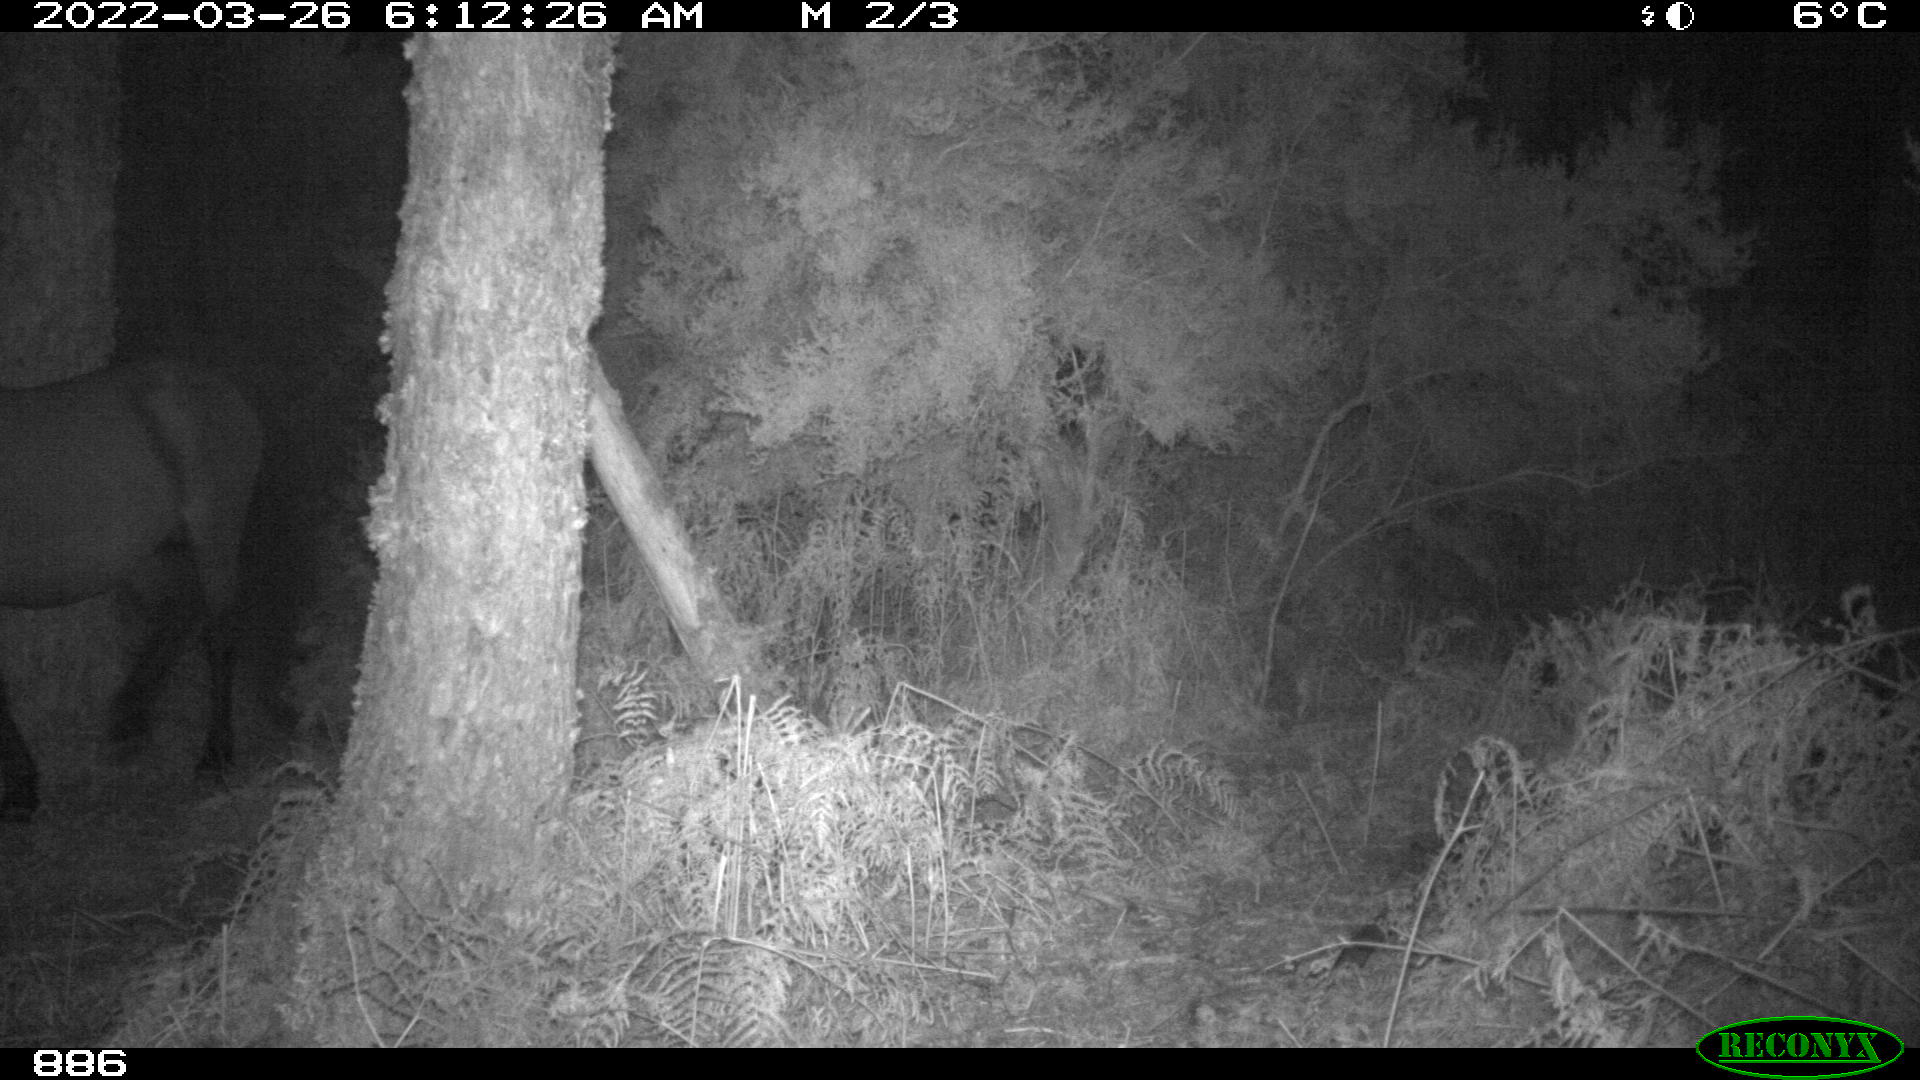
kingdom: Animalia
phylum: Chordata
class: Mammalia
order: Perissodactyla
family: Equidae
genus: Equus
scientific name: Equus caballus
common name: Horse
